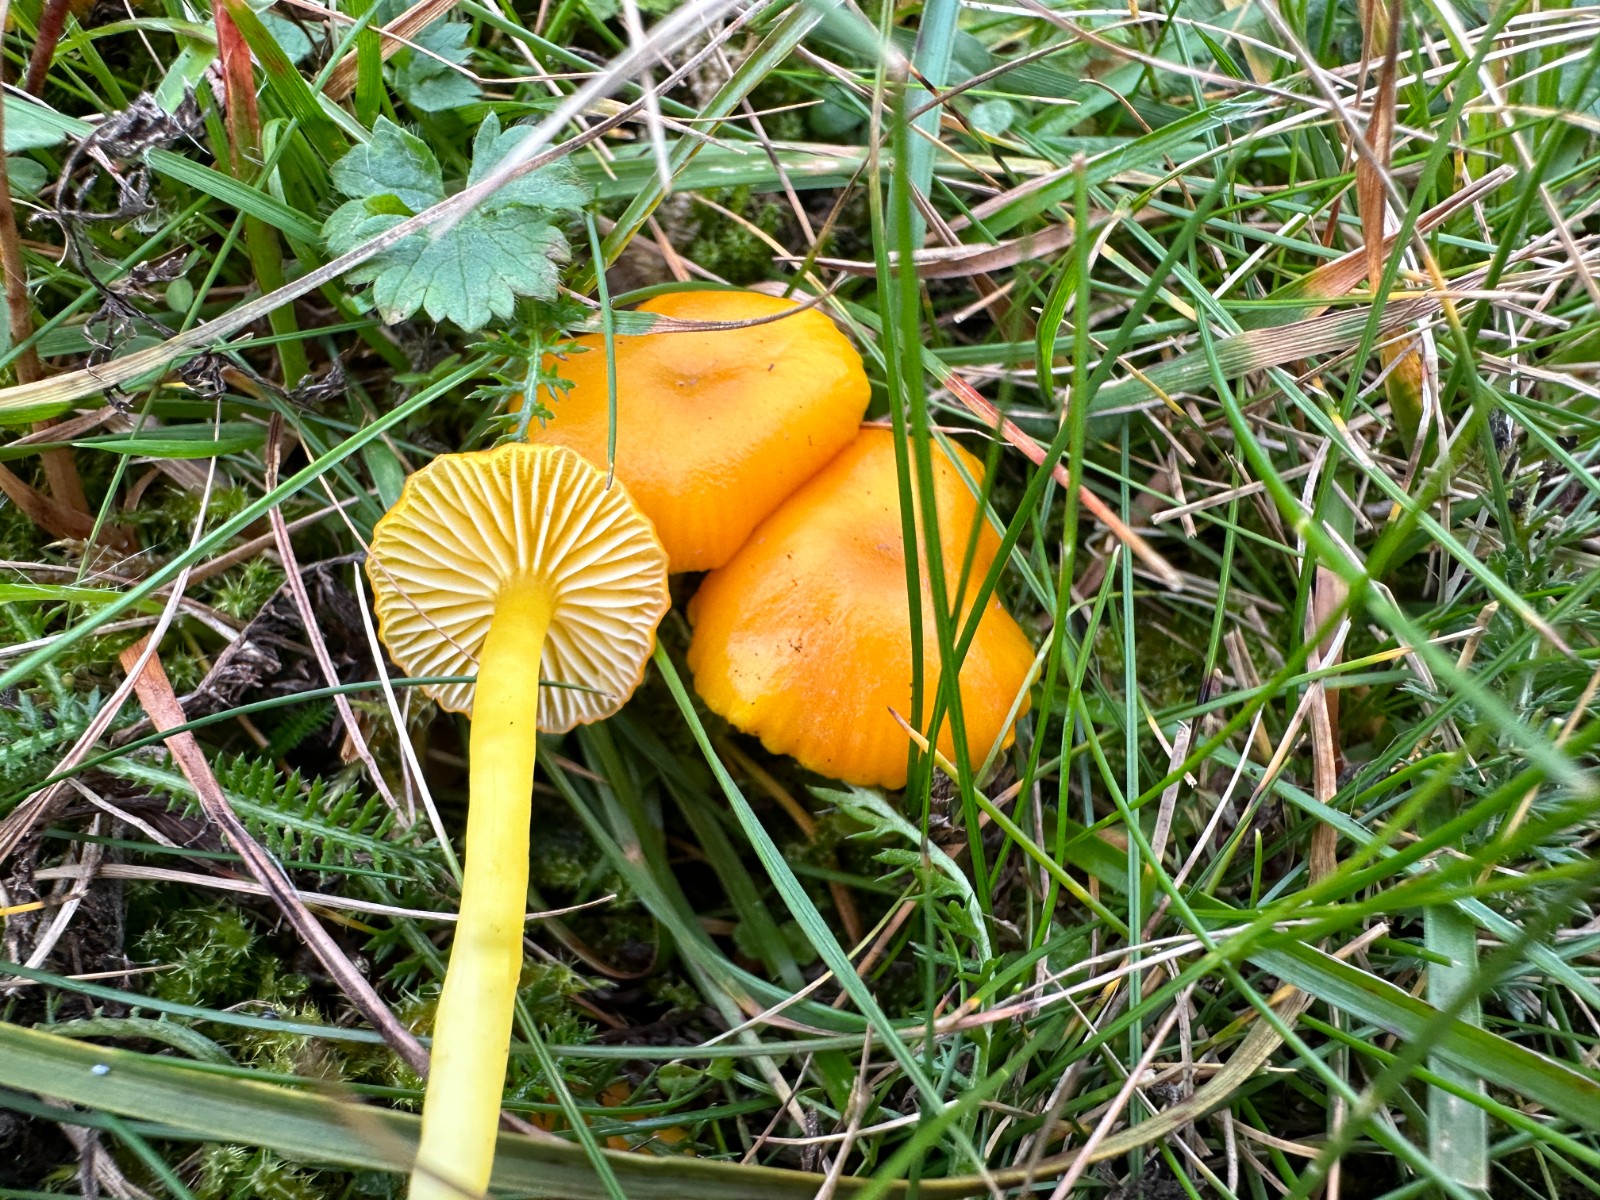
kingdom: Fungi
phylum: Basidiomycota
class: Agaricomycetes
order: Agaricales
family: Hygrophoraceae
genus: Hygrocybe
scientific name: Hygrocybe ceracea
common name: voksgul vokshat
